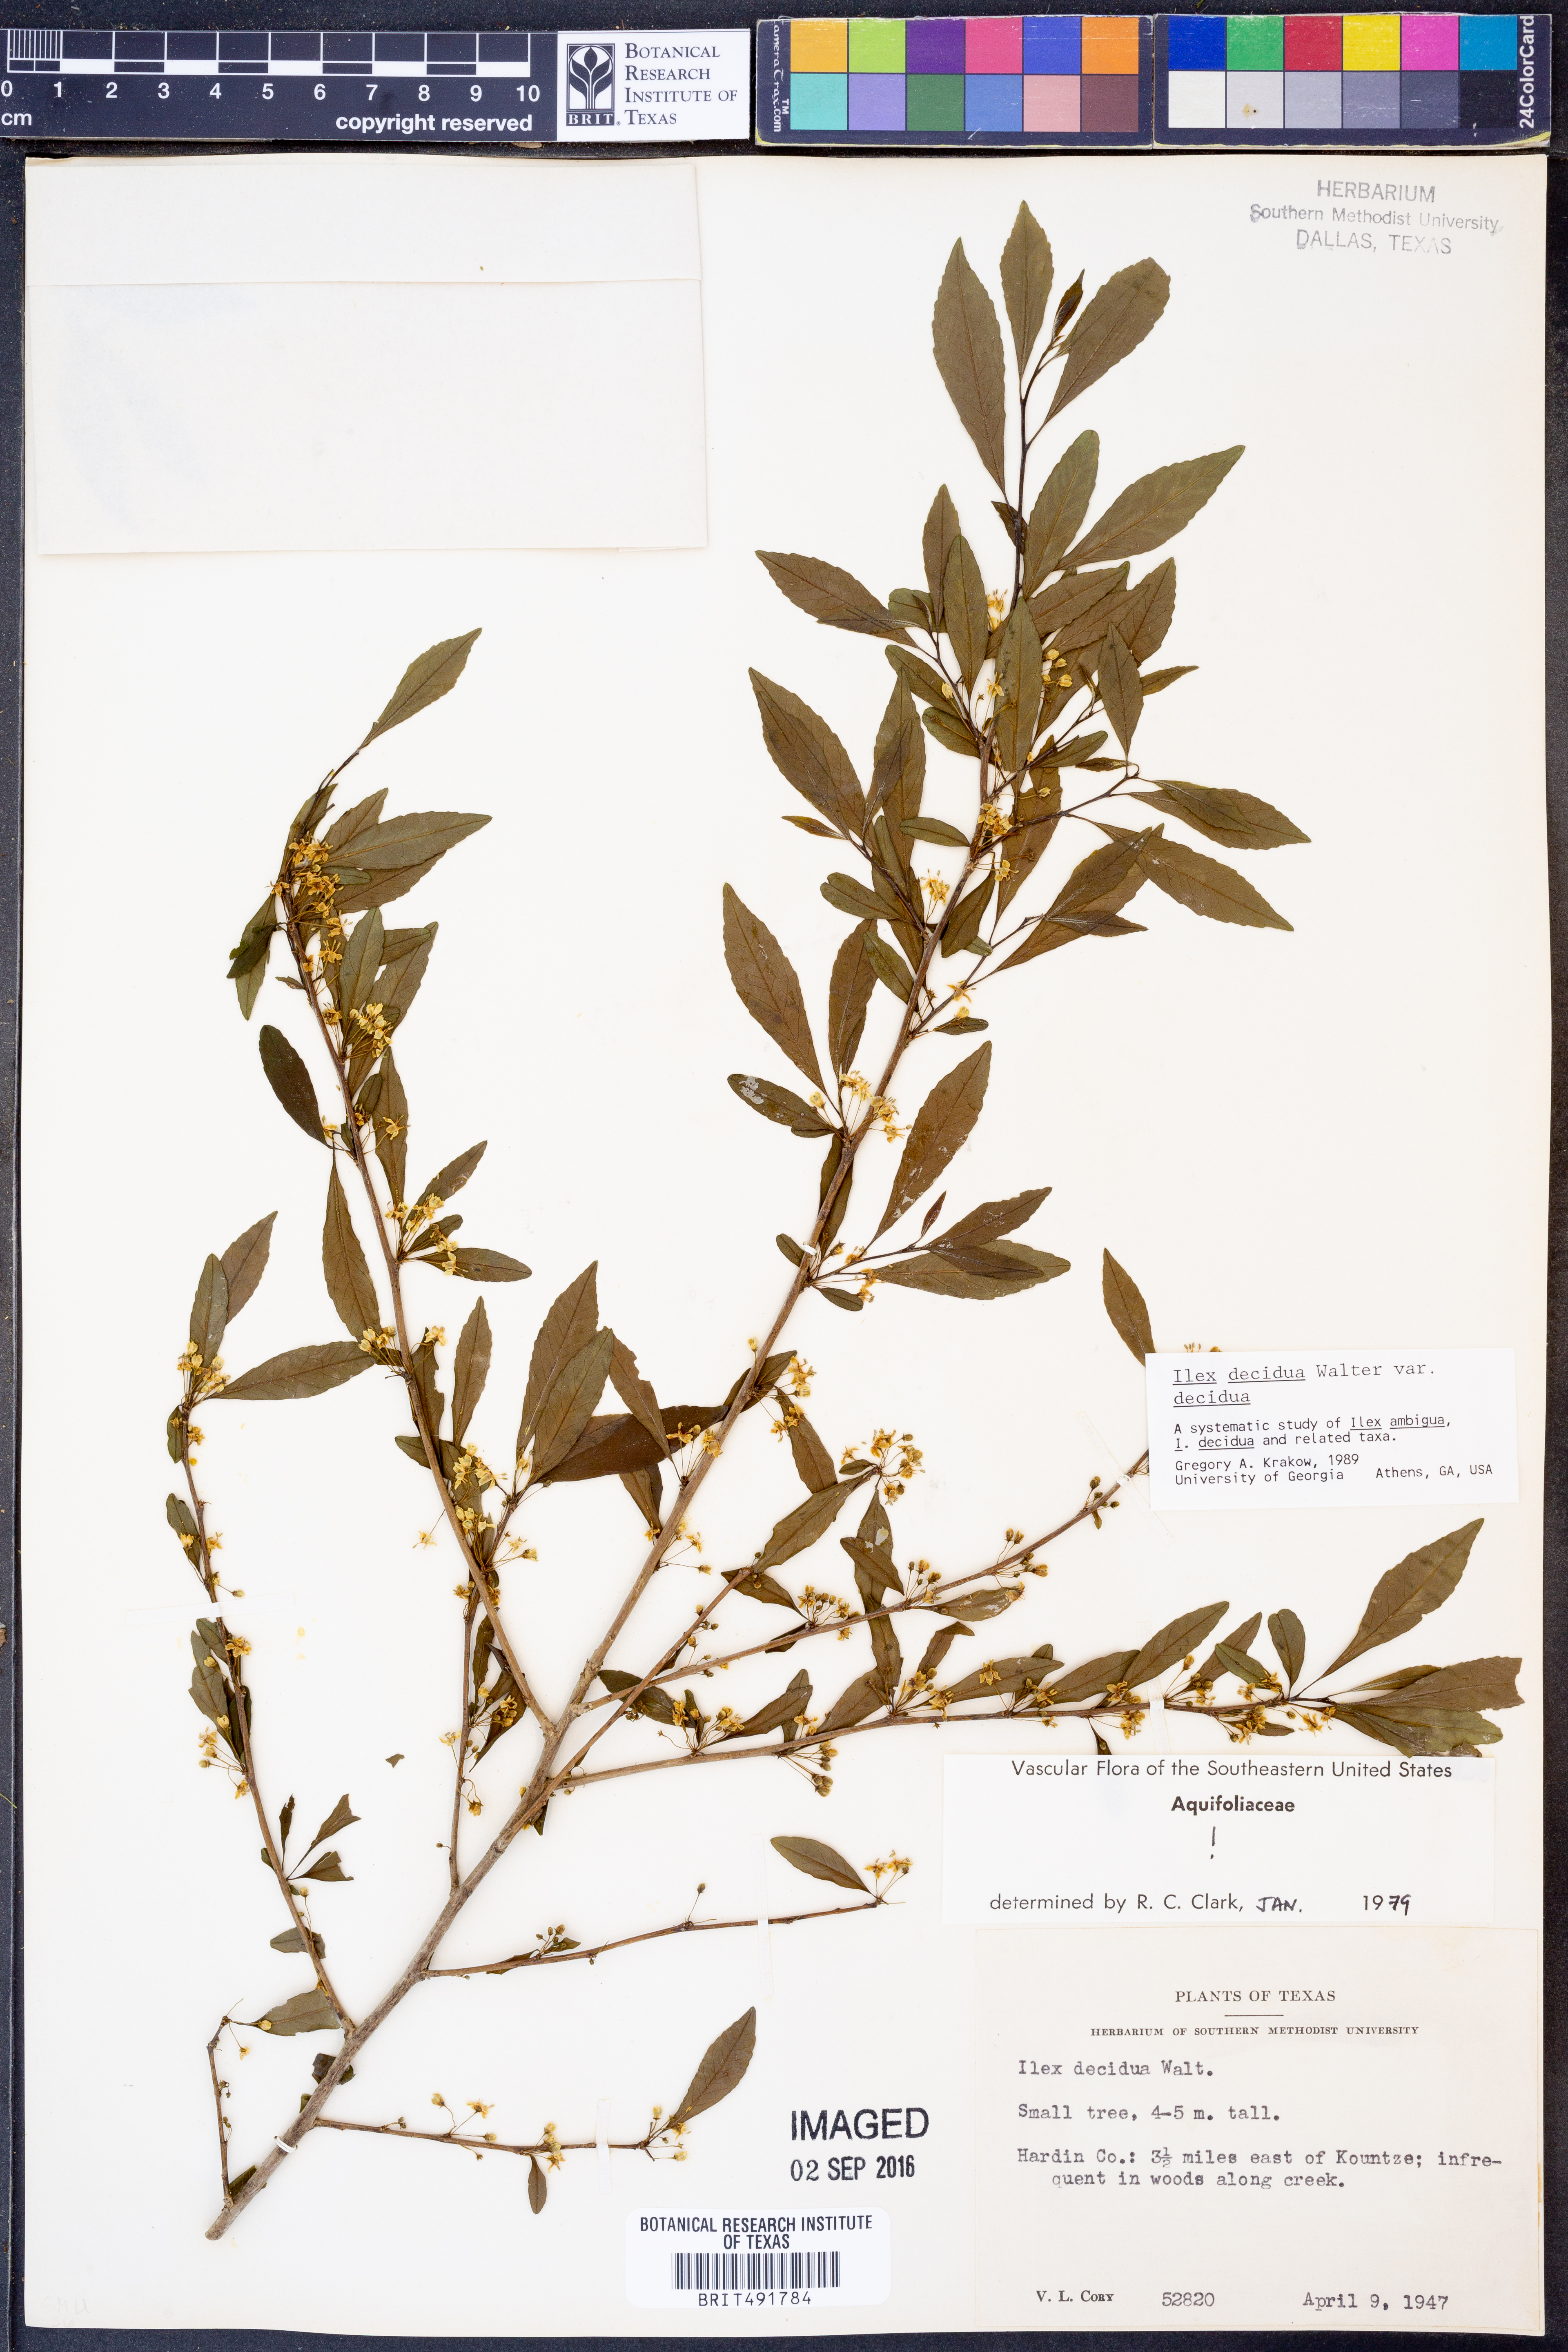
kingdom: Plantae
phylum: Tracheophyta
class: Magnoliopsida
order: Aquifoliales
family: Aquifoliaceae
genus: Ilex
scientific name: Ilex decidua
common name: Possum-haw
